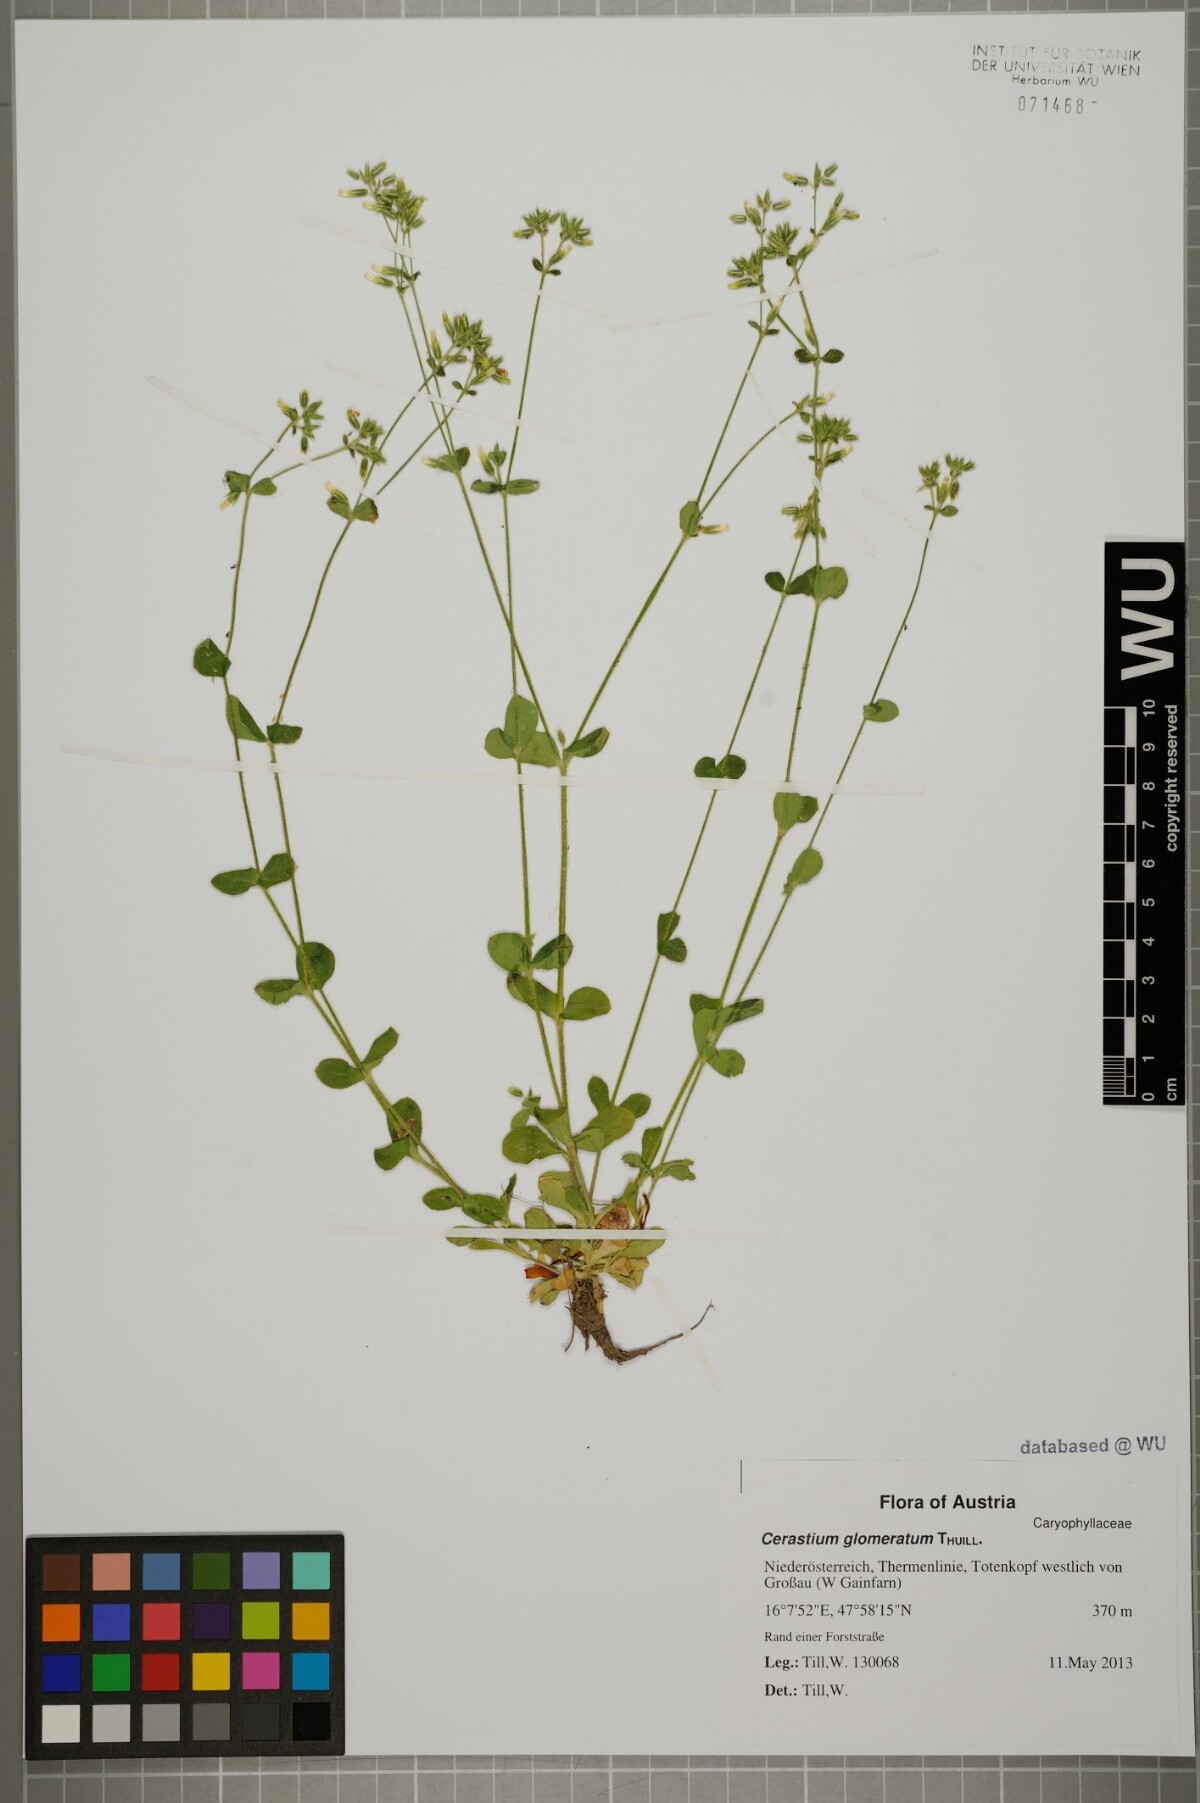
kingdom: Plantae
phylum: Tracheophyta
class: Magnoliopsida
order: Caryophyllales
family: Caryophyllaceae
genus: Cerastium
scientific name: Cerastium glomeratum
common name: Sticky chickweed
